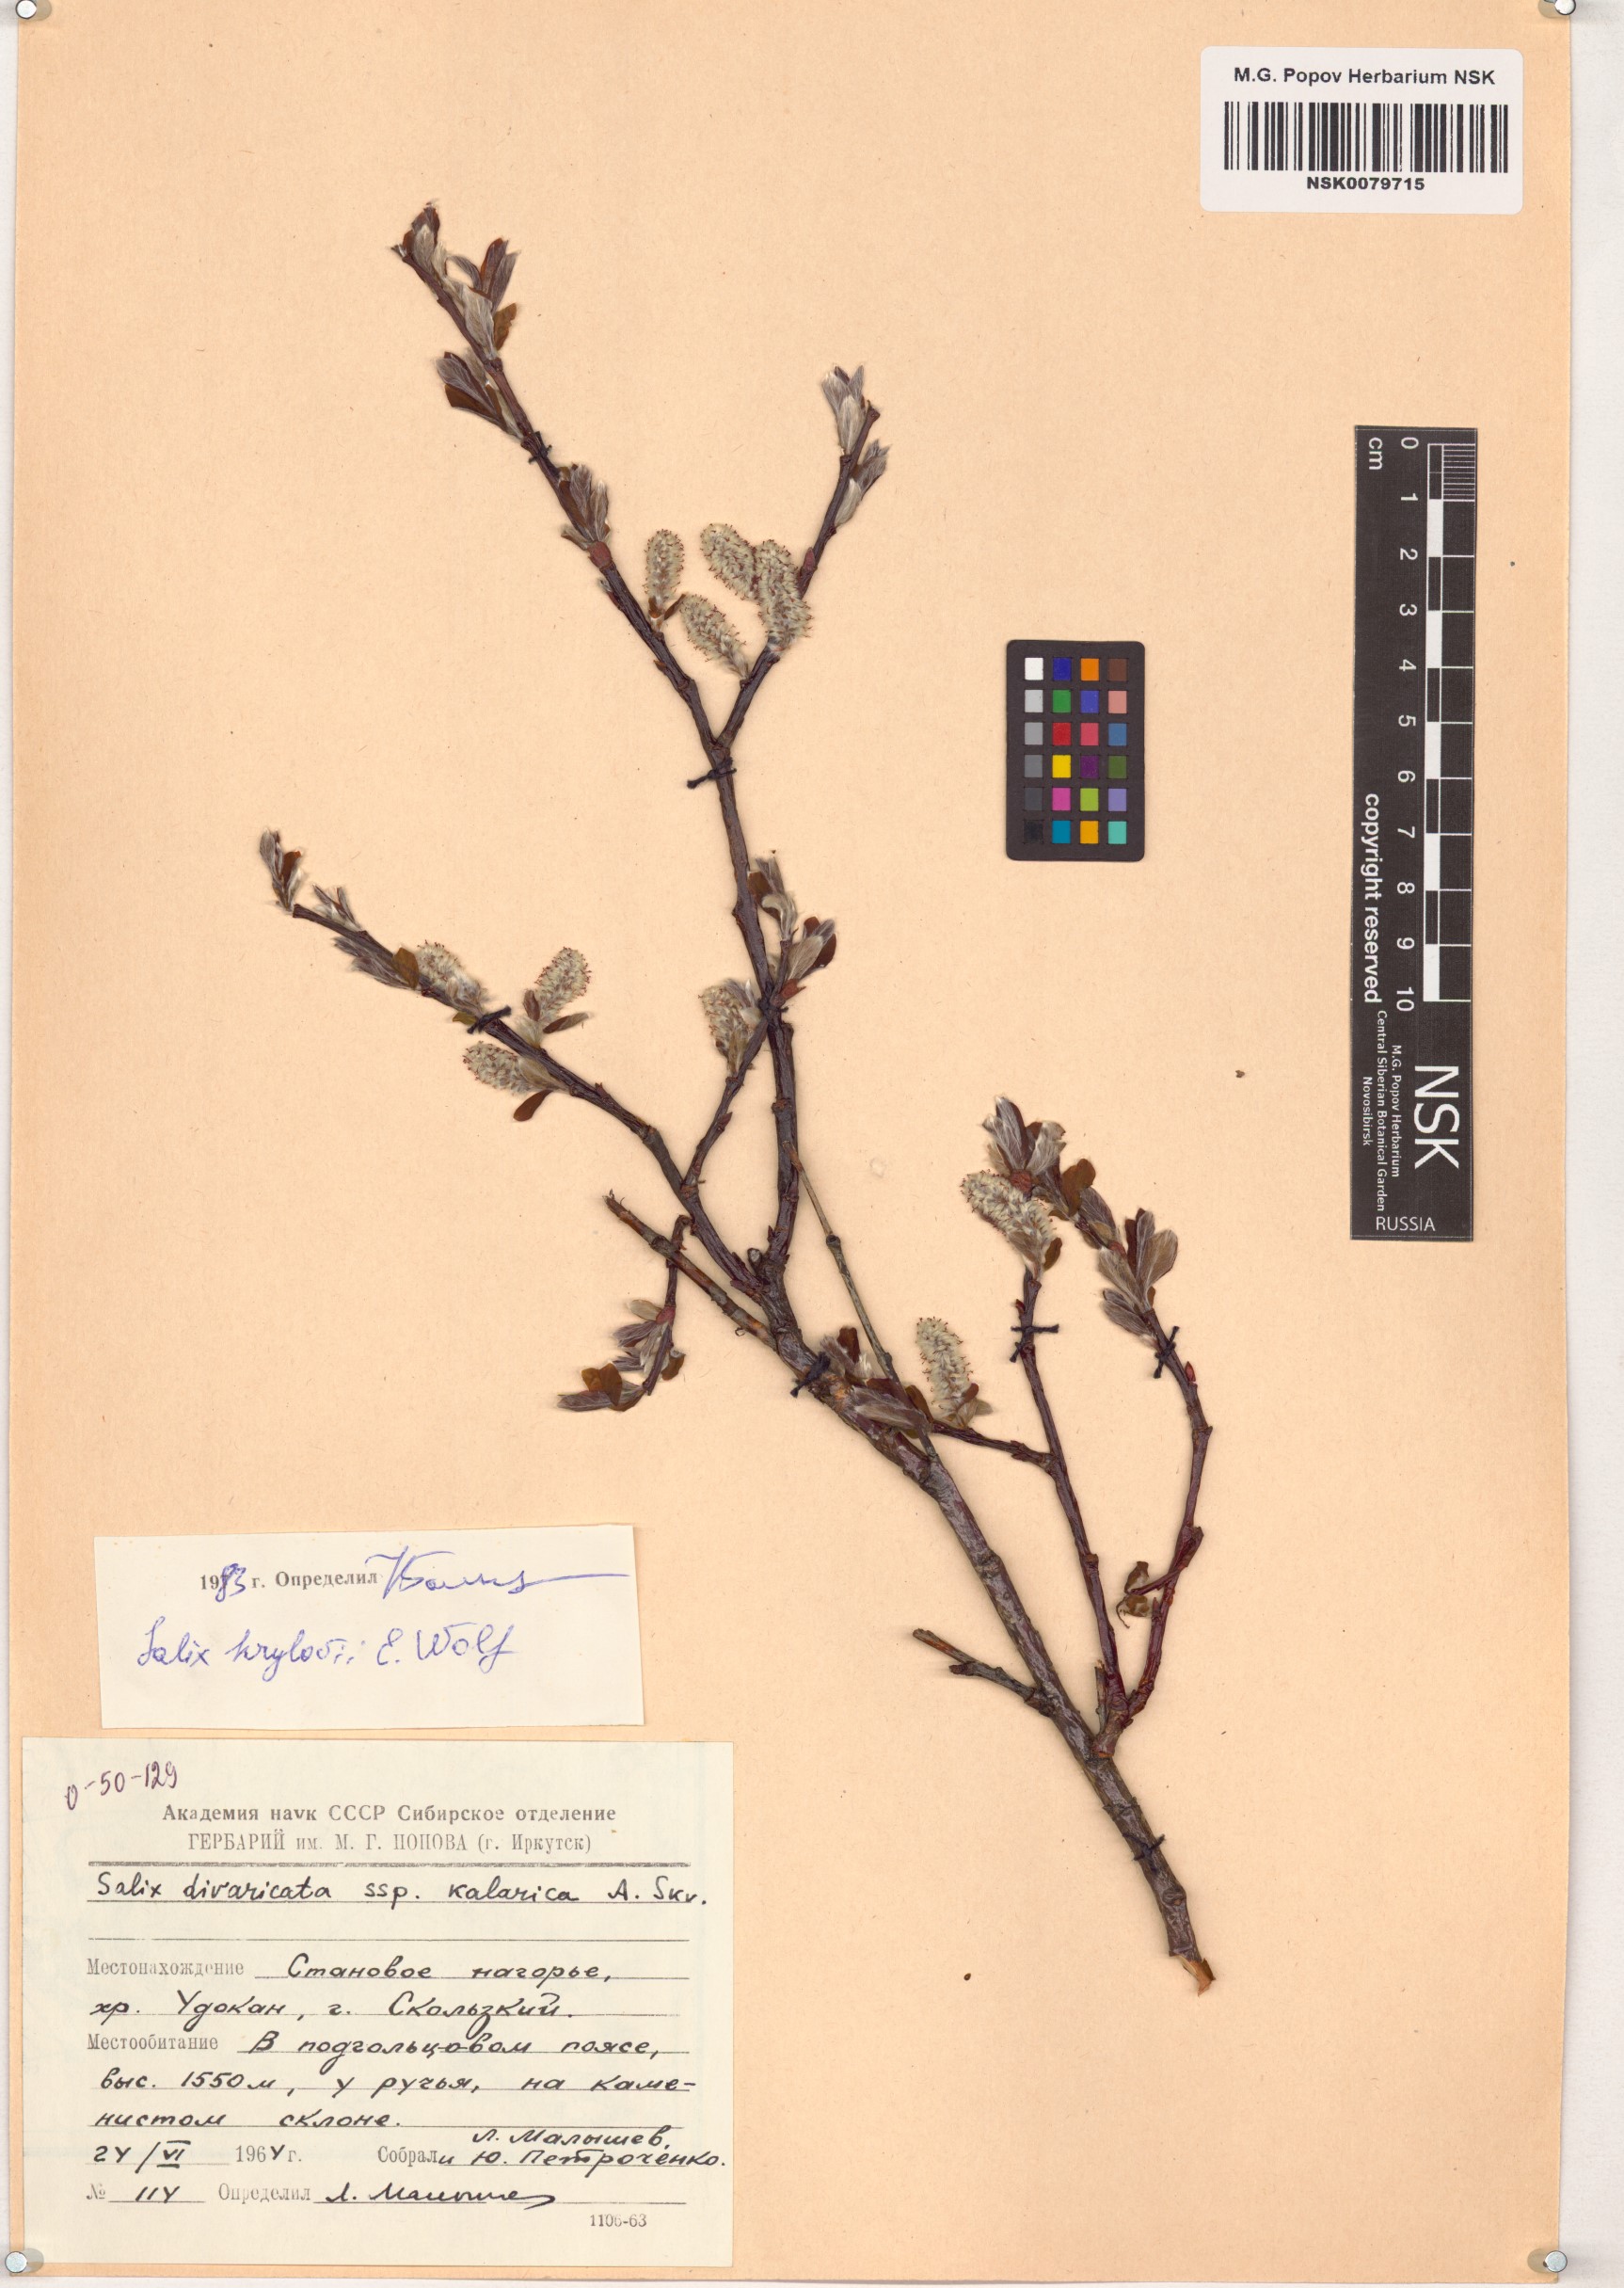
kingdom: Plantae
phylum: Tracheophyta
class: Magnoliopsida
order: Malpighiales
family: Salicaceae
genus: Salix
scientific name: Salix krylovii
